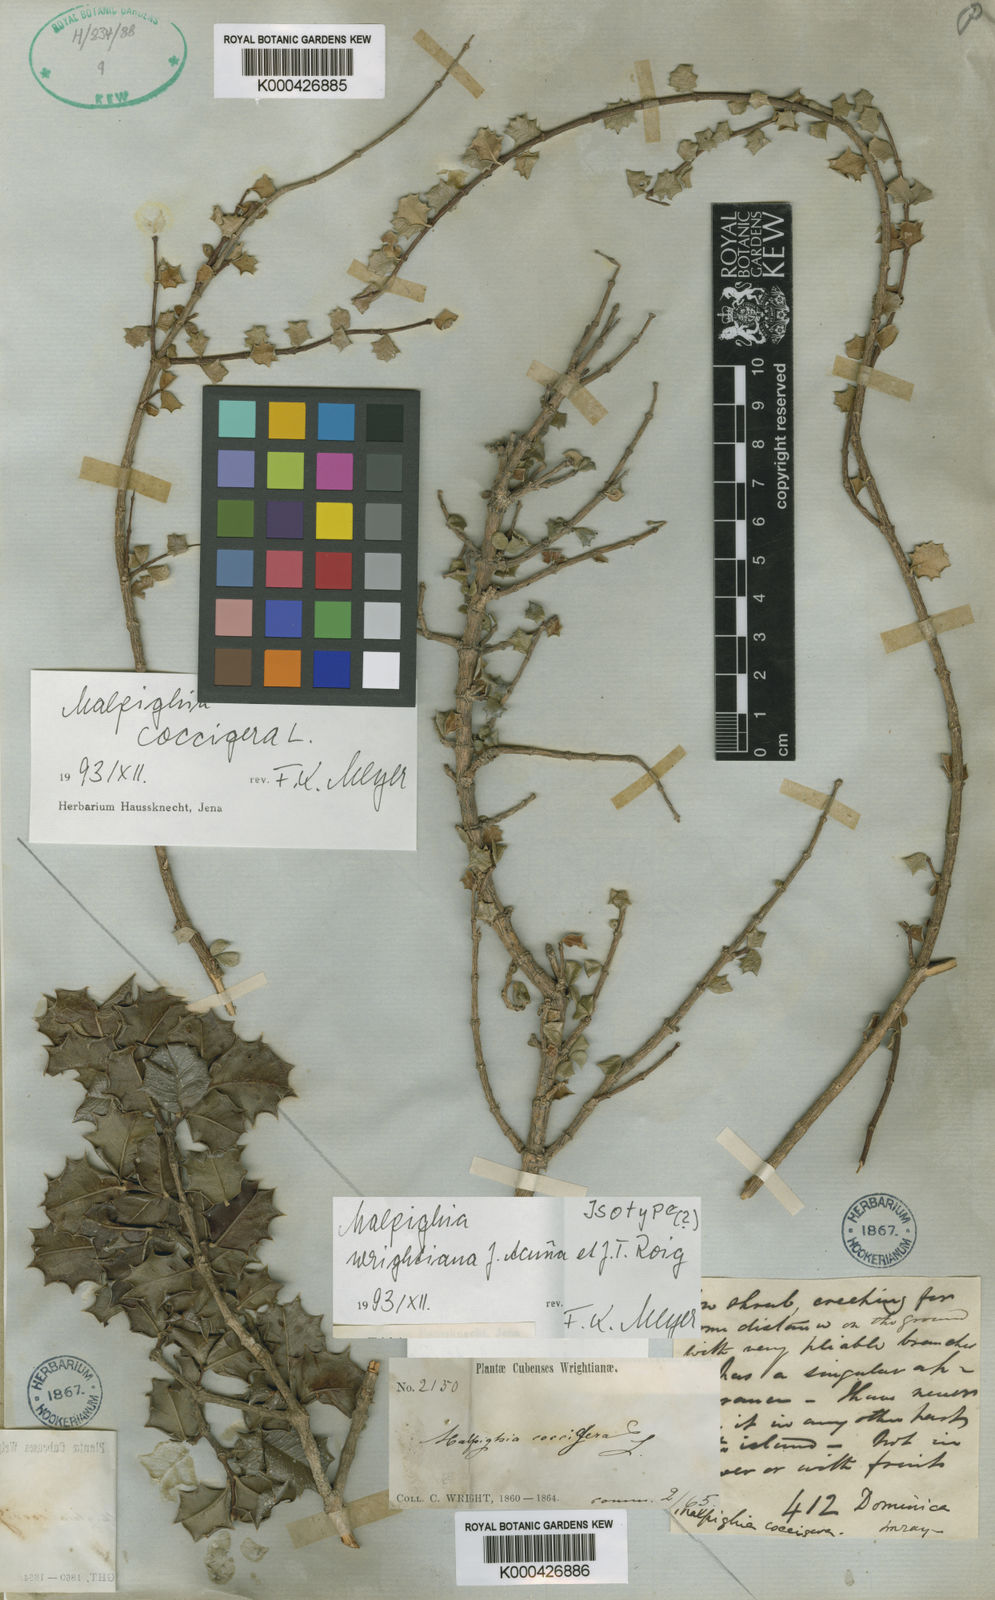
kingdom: Plantae
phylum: Tracheophyta
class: Magnoliopsida
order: Malpighiales
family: Malpighiaceae
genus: Malpighia
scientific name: Malpighia
